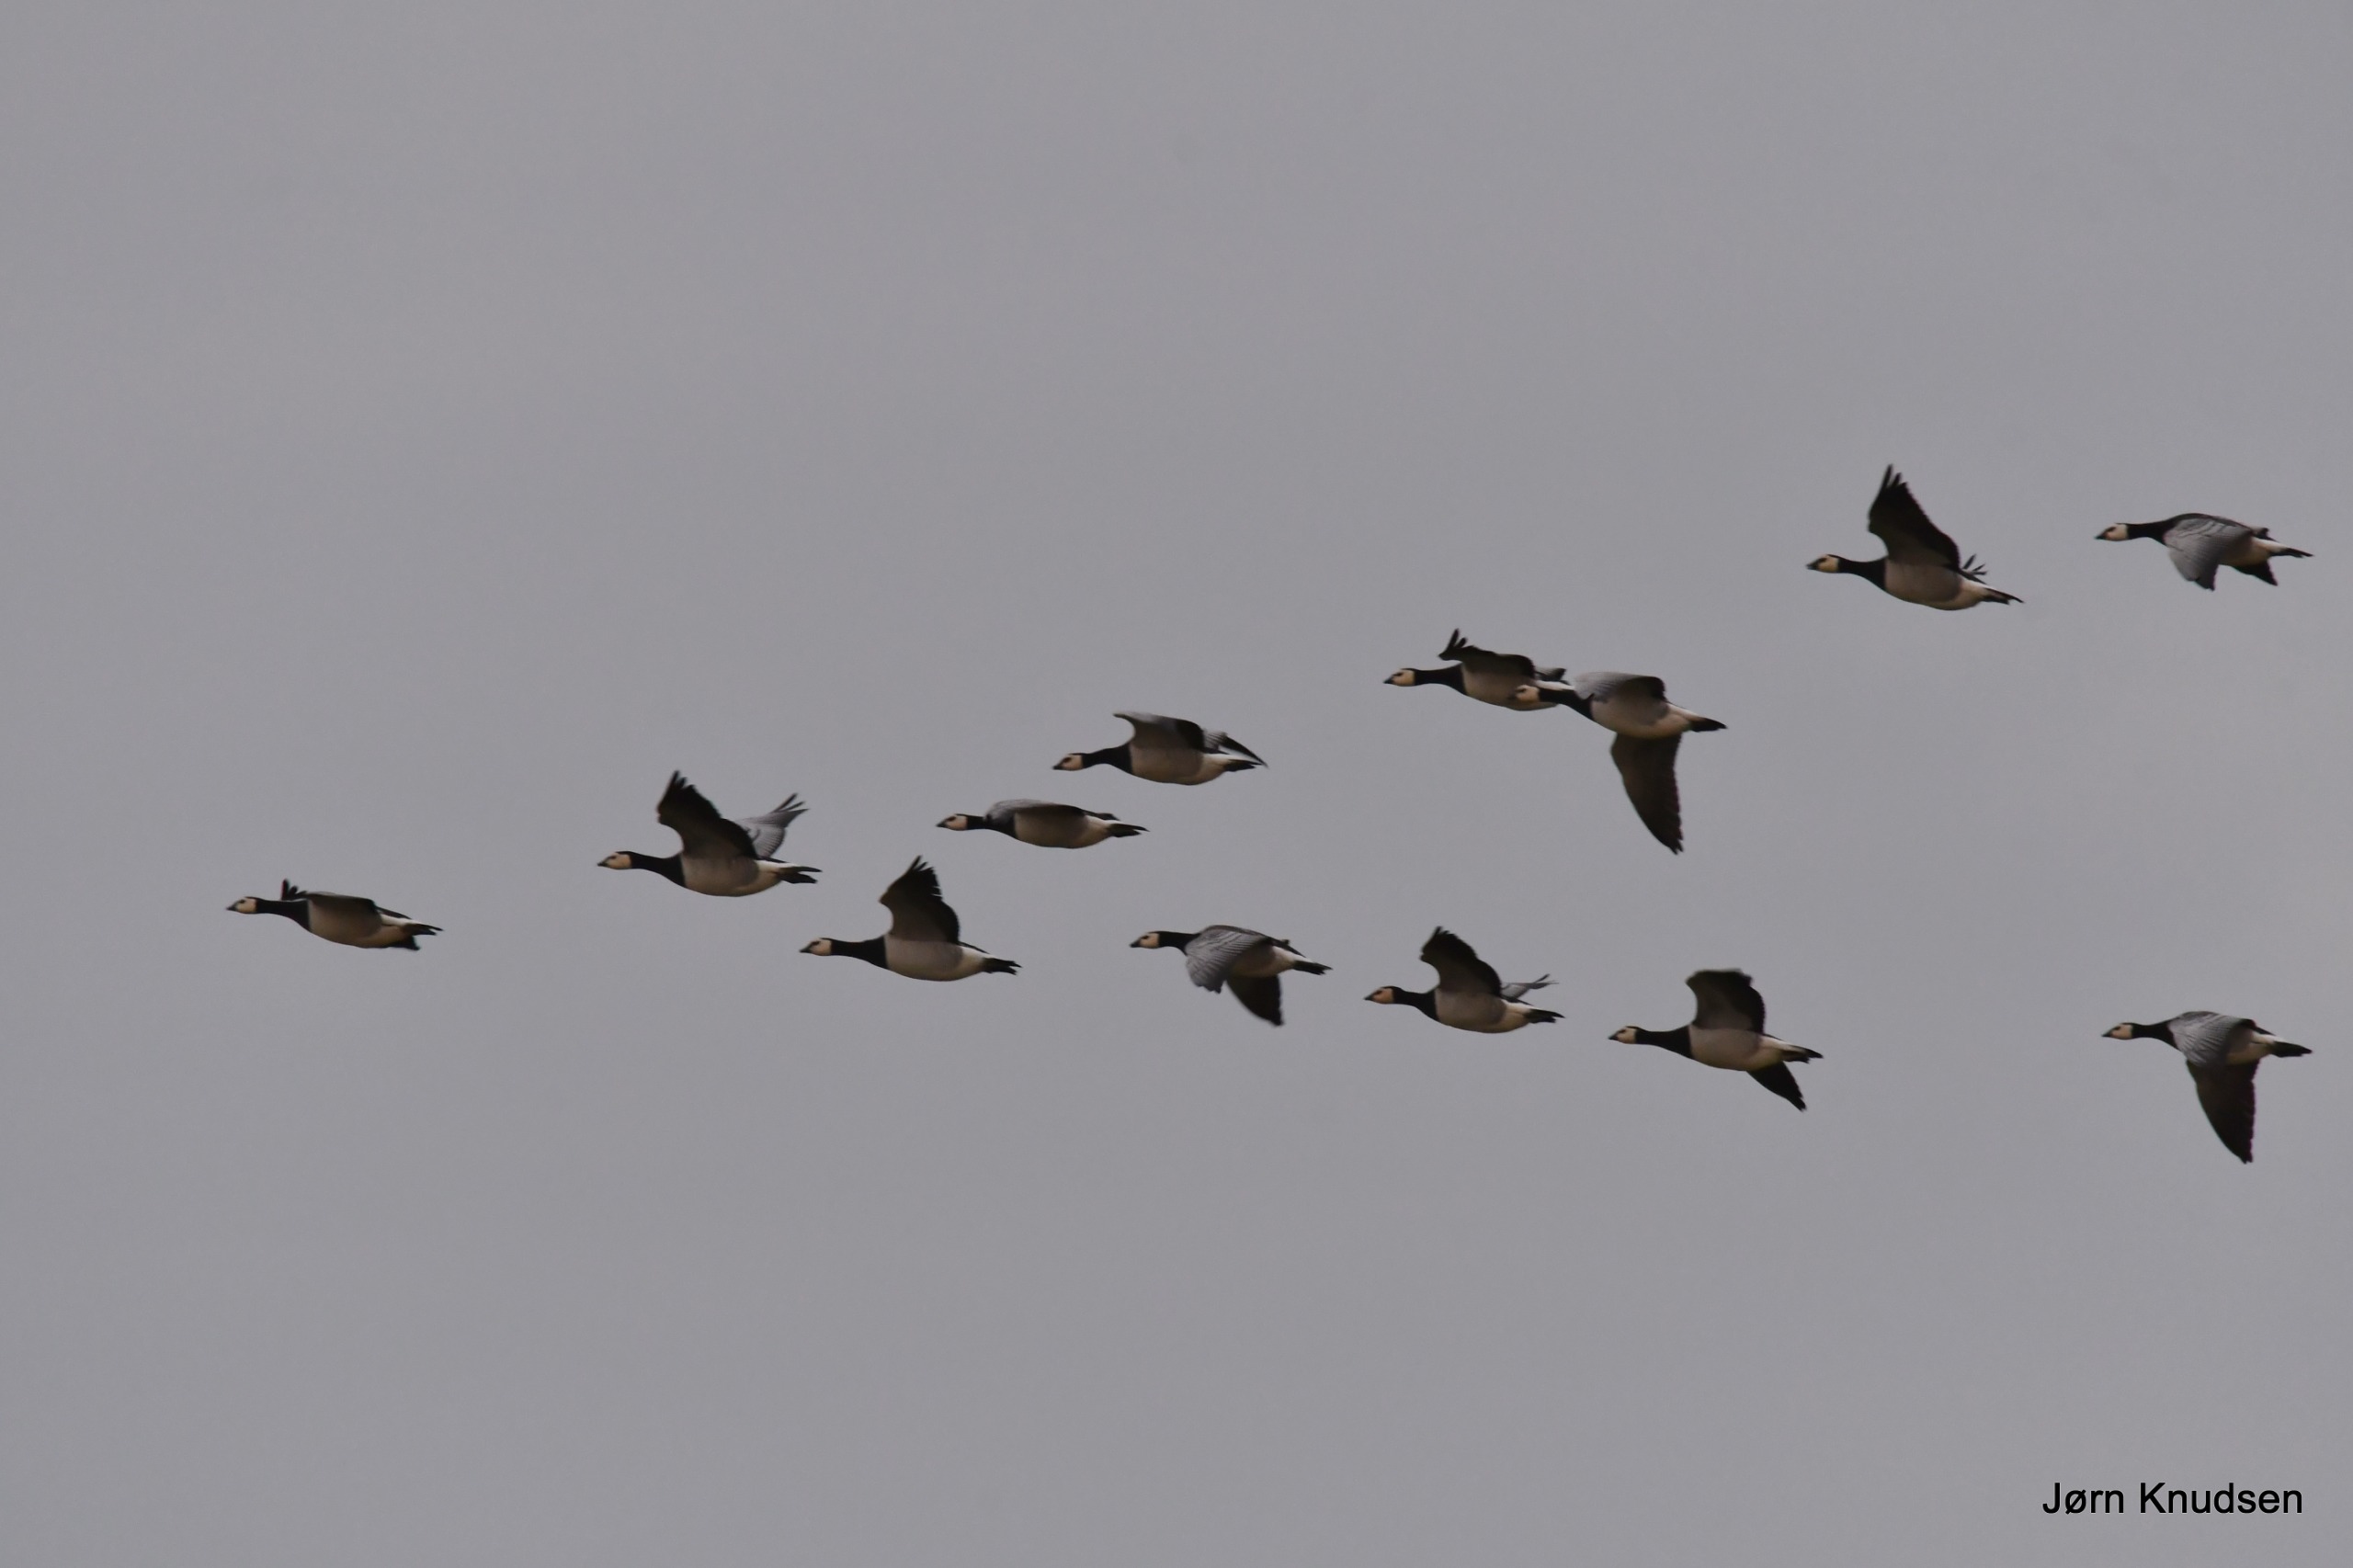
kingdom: Animalia
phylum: Chordata
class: Aves
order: Anseriformes
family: Anatidae
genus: Branta
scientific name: Branta leucopsis
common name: Bramgås
